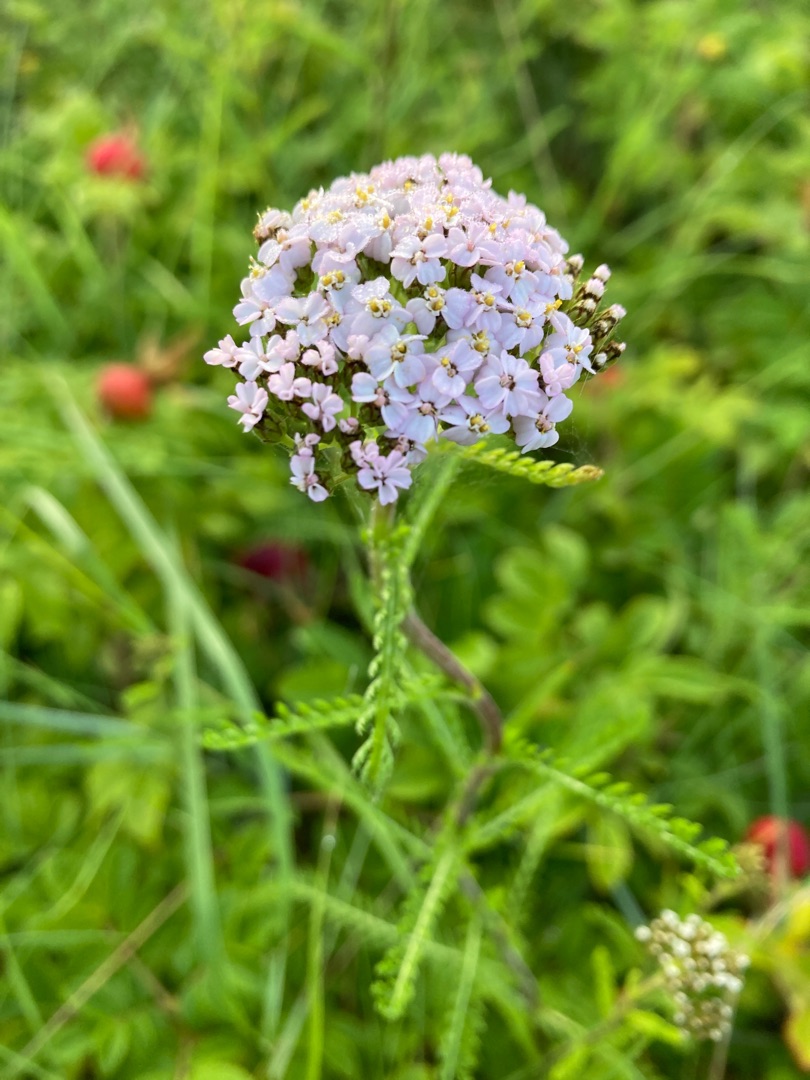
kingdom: Plantae
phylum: Tracheophyta
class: Magnoliopsida
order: Asterales
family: Asteraceae
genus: Achillea
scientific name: Achillea millefolium
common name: Almindelig røllike
